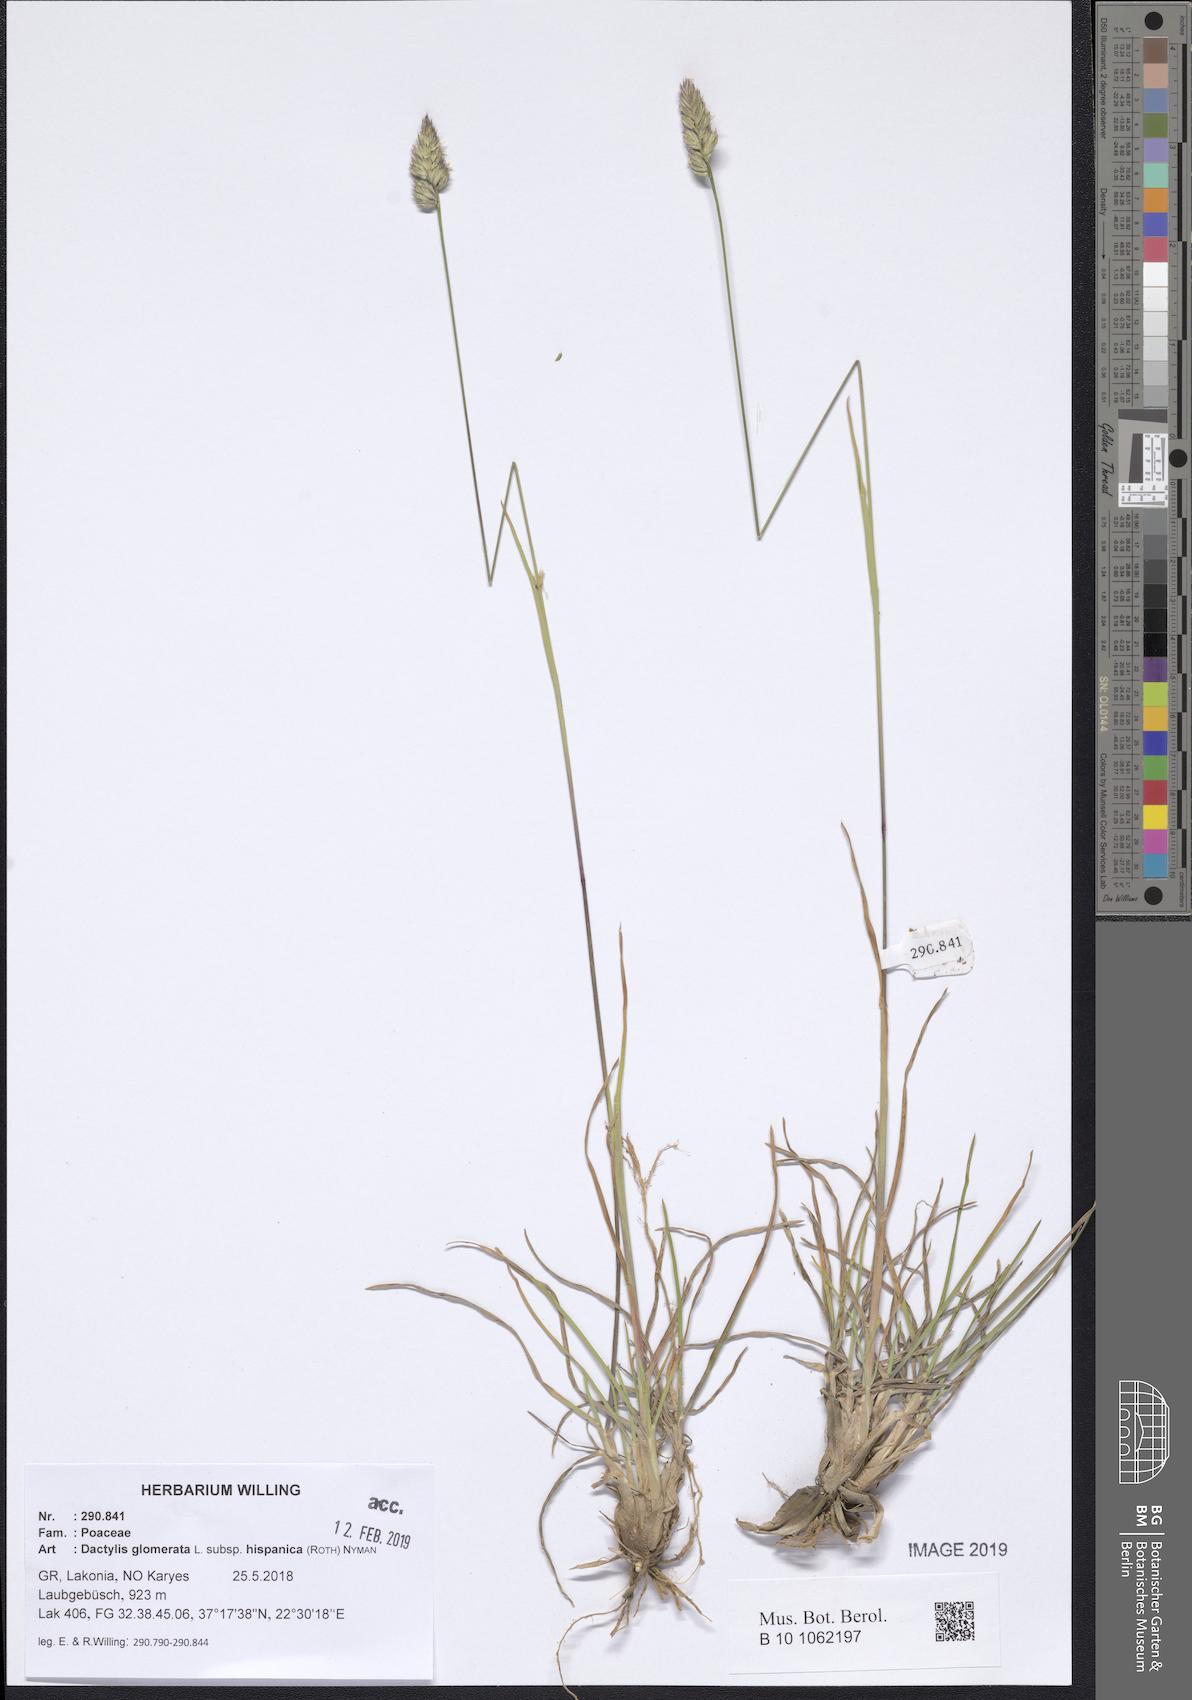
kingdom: Plantae
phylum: Tracheophyta
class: Liliopsida
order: Poales
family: Poaceae
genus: Dactylis
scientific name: Dactylis glomerata
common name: Orchardgrass
